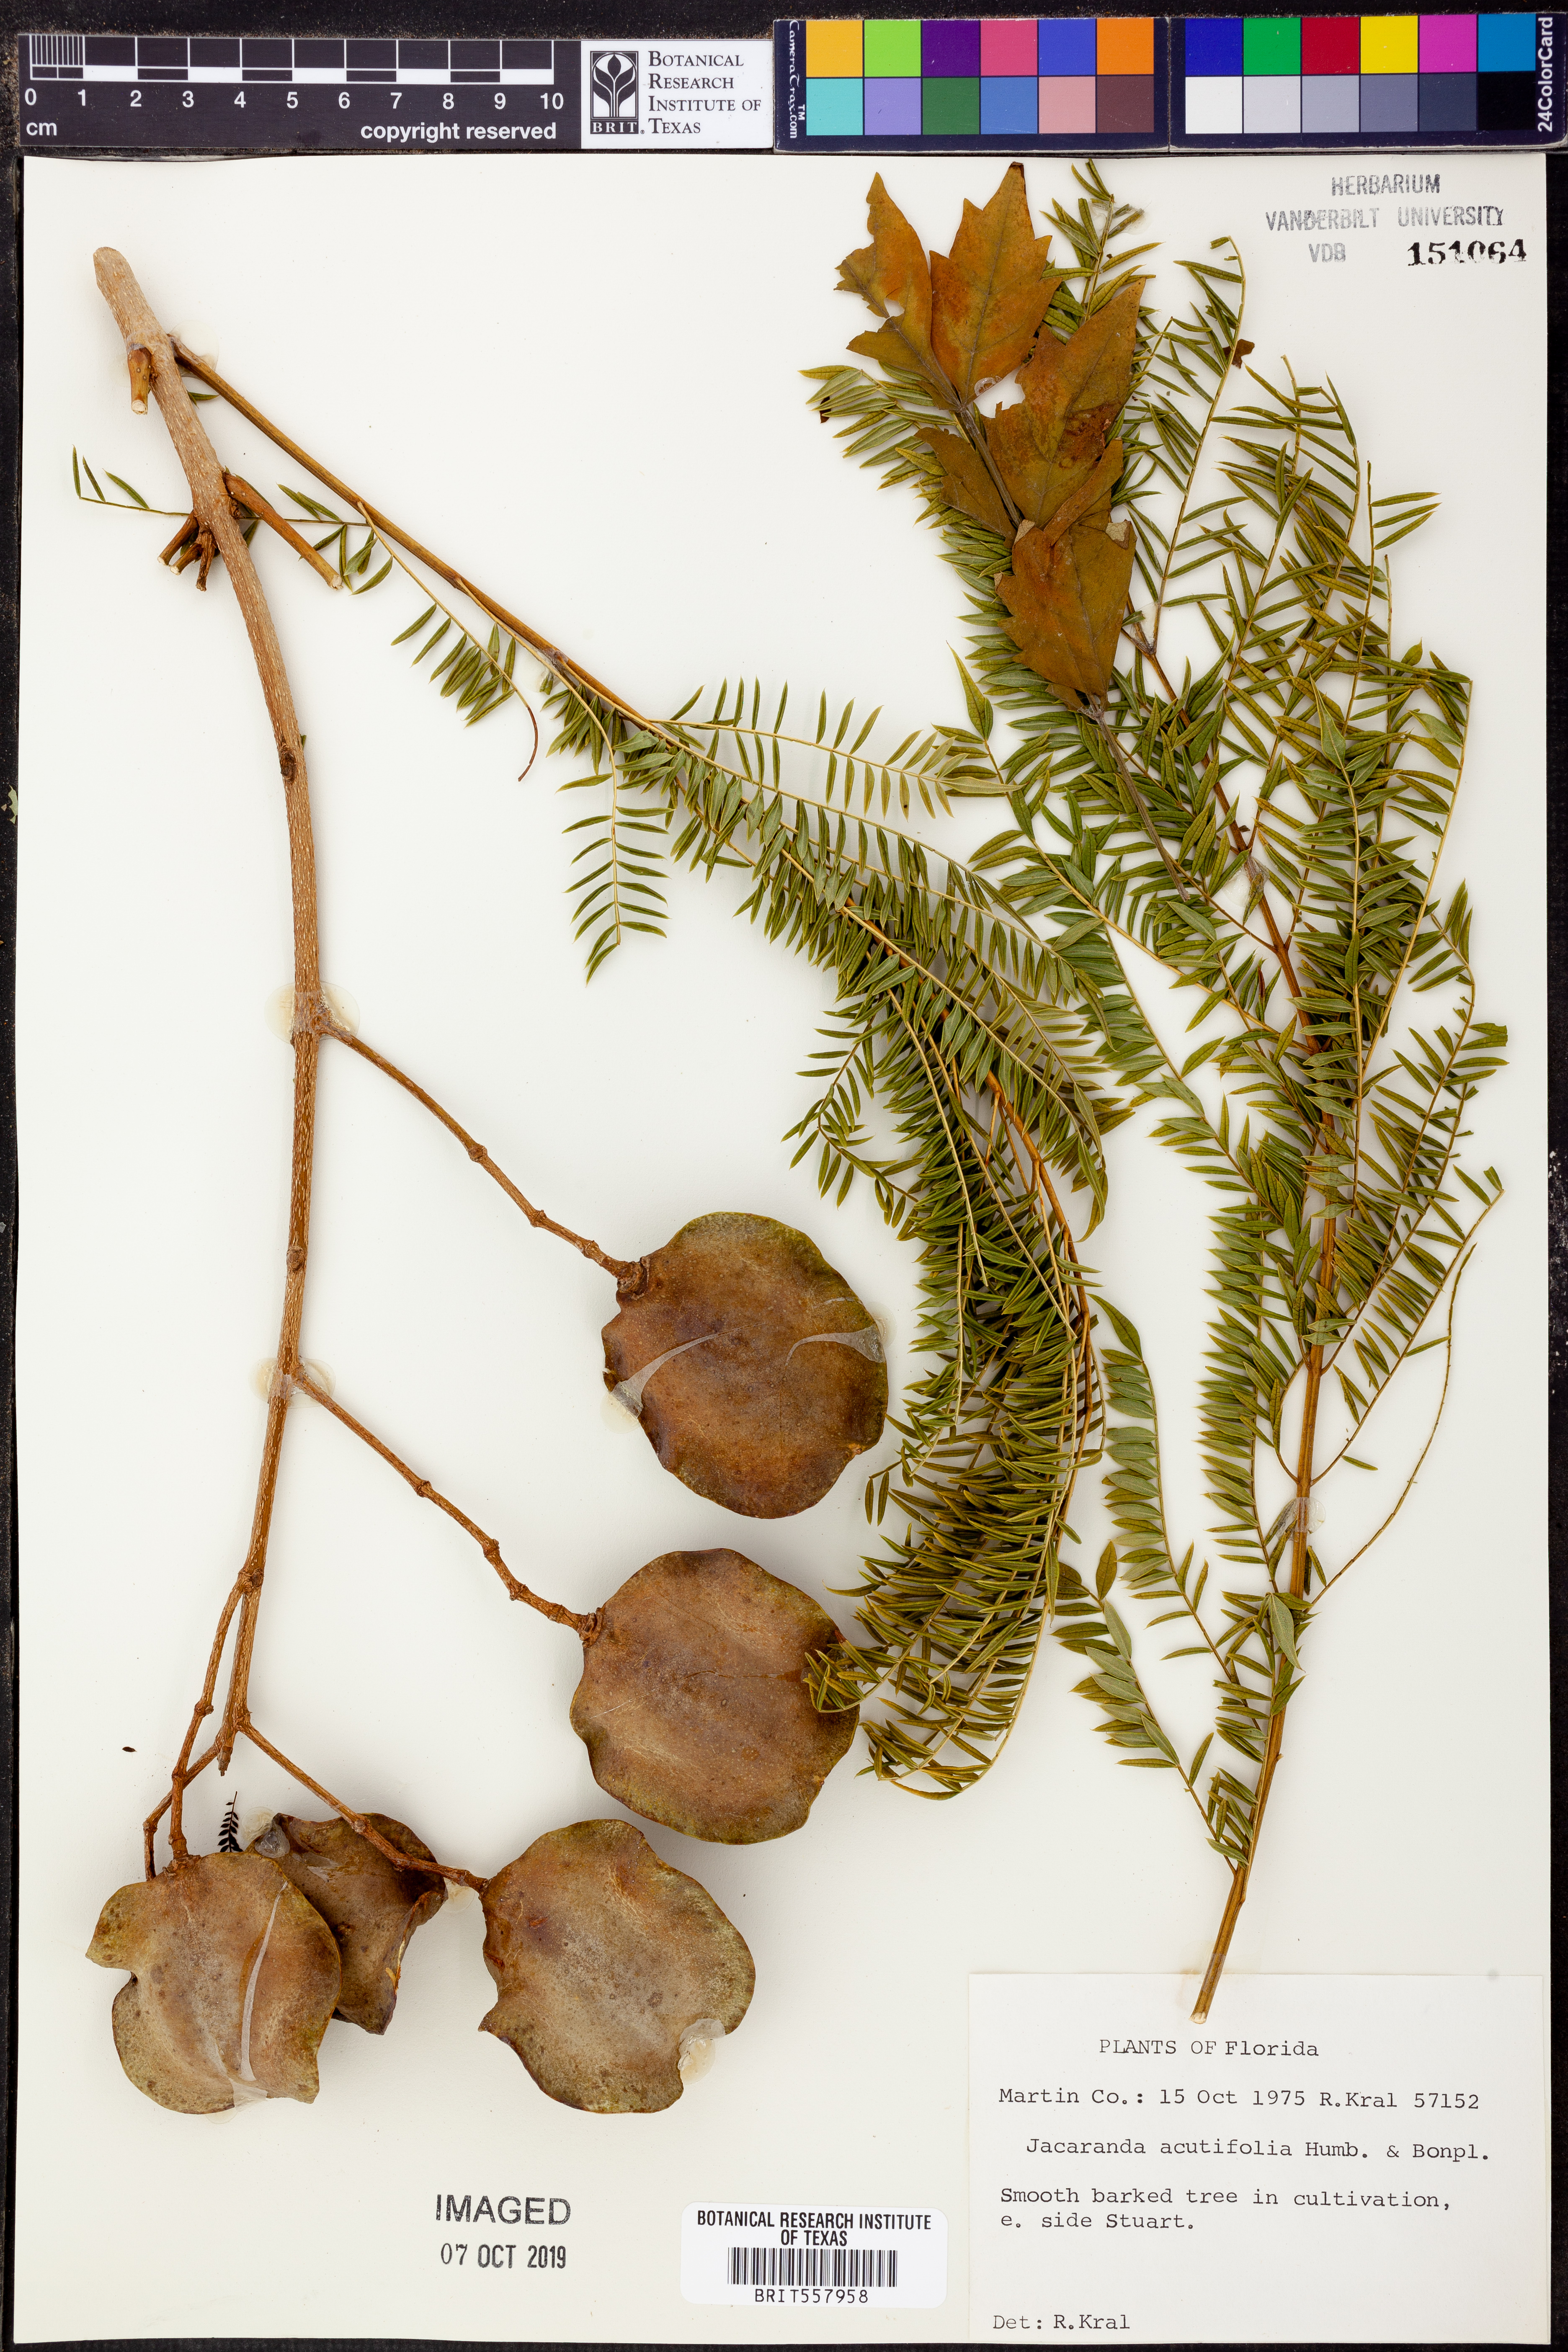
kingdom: Plantae
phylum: Tracheophyta
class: Magnoliopsida
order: Lamiales
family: Bignoniaceae
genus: Jacaranda
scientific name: Jacaranda acutifolia
